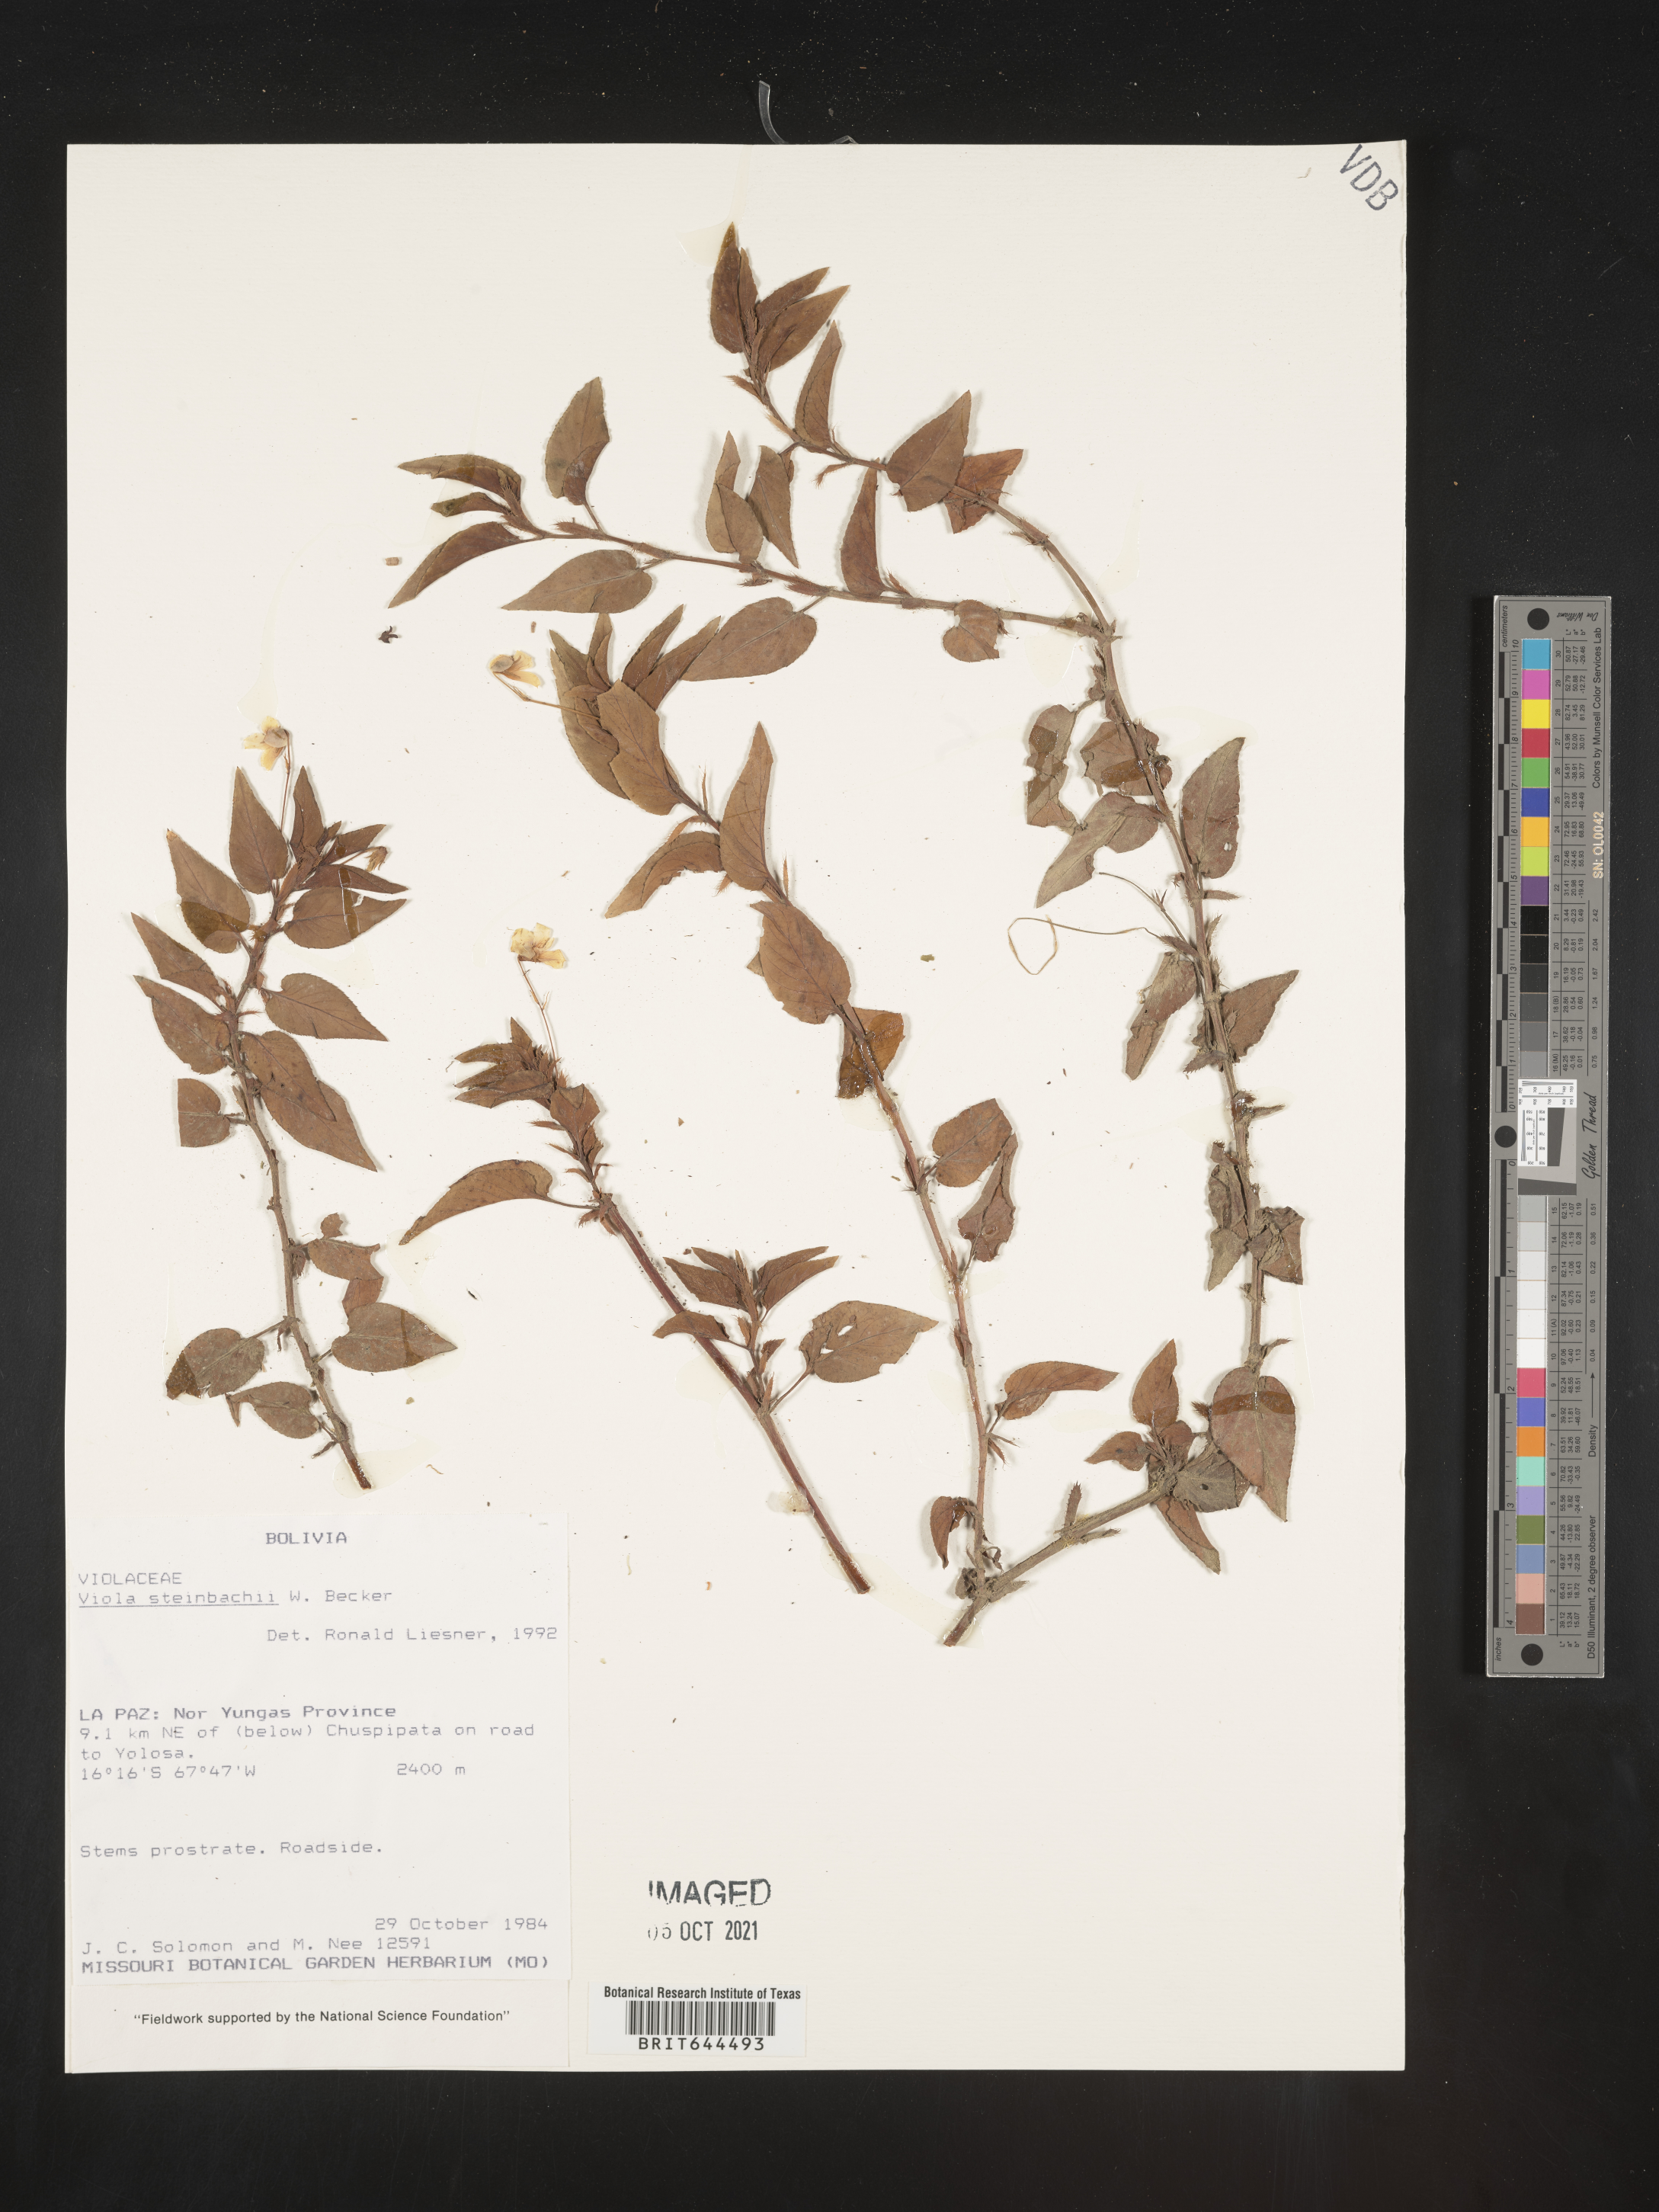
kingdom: Plantae
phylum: Tracheophyta
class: Magnoliopsida
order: Malpighiales
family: Violaceae
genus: Viola
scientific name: Viola
